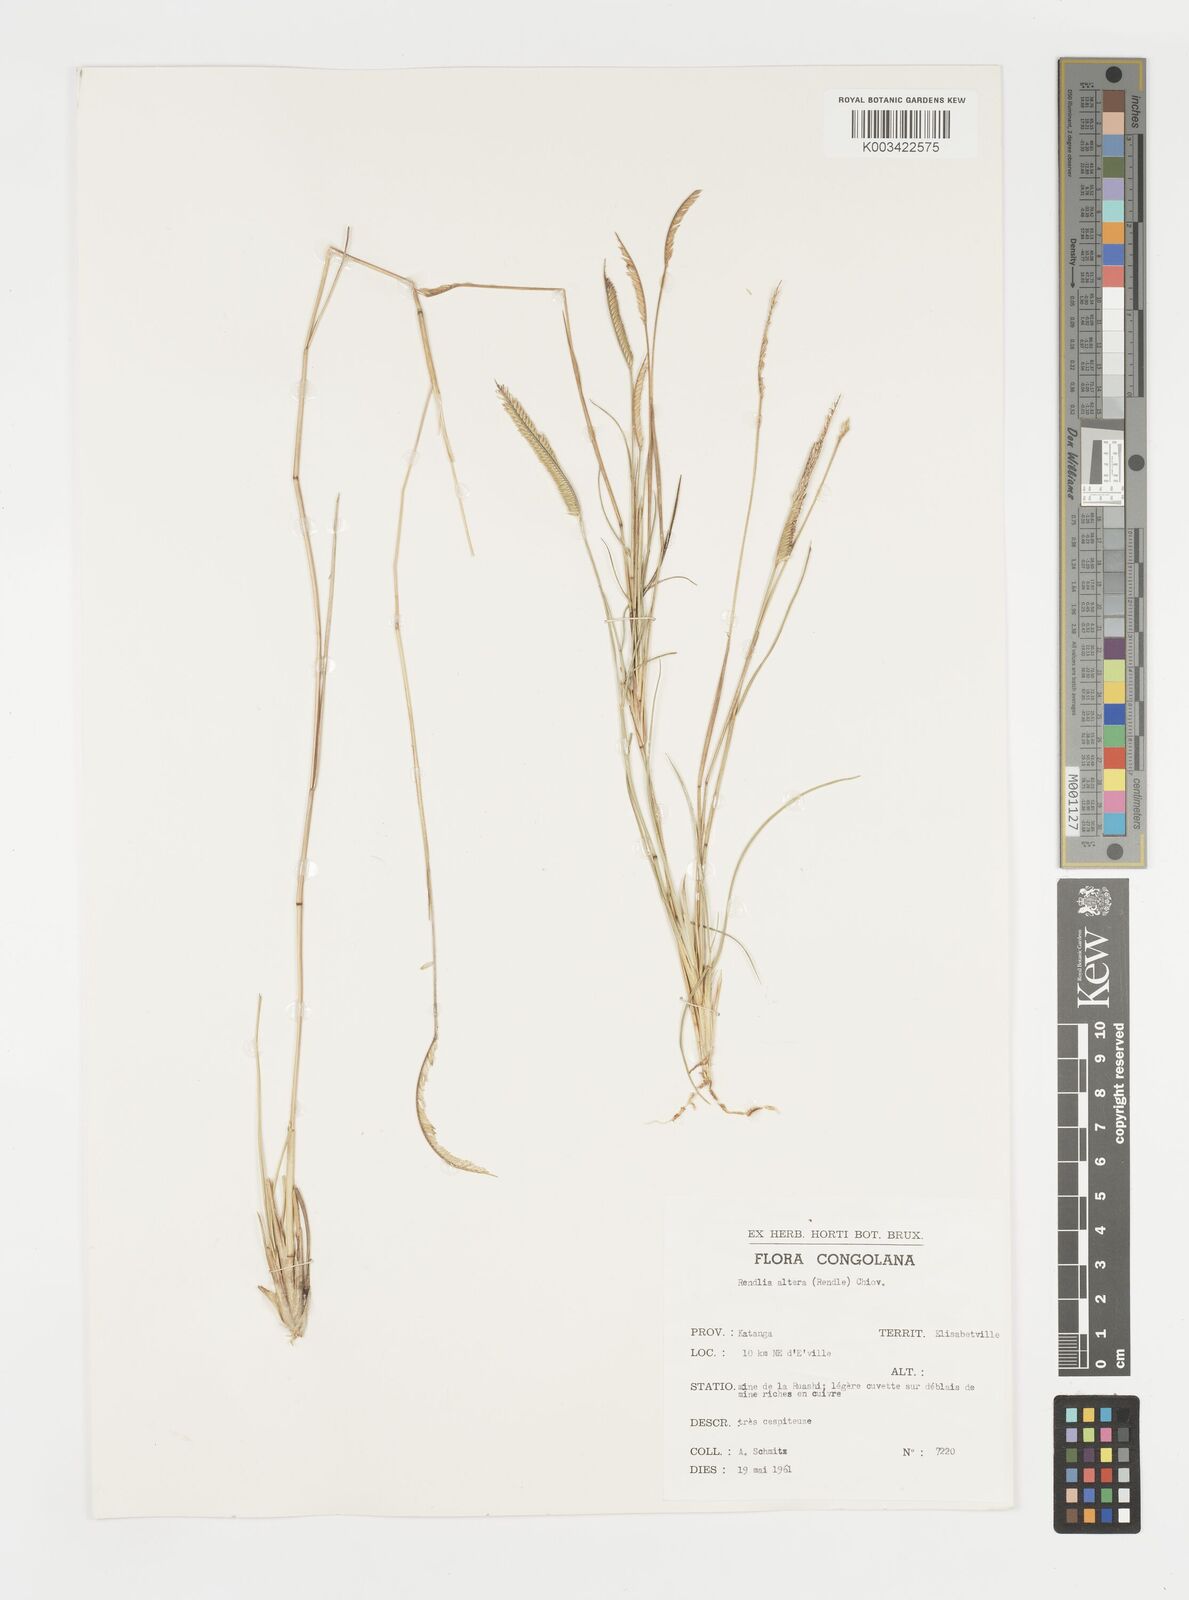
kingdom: Plantae
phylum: Tracheophyta
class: Liliopsida
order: Poales
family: Poaceae
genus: Microchloa
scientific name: Microchloa altera
